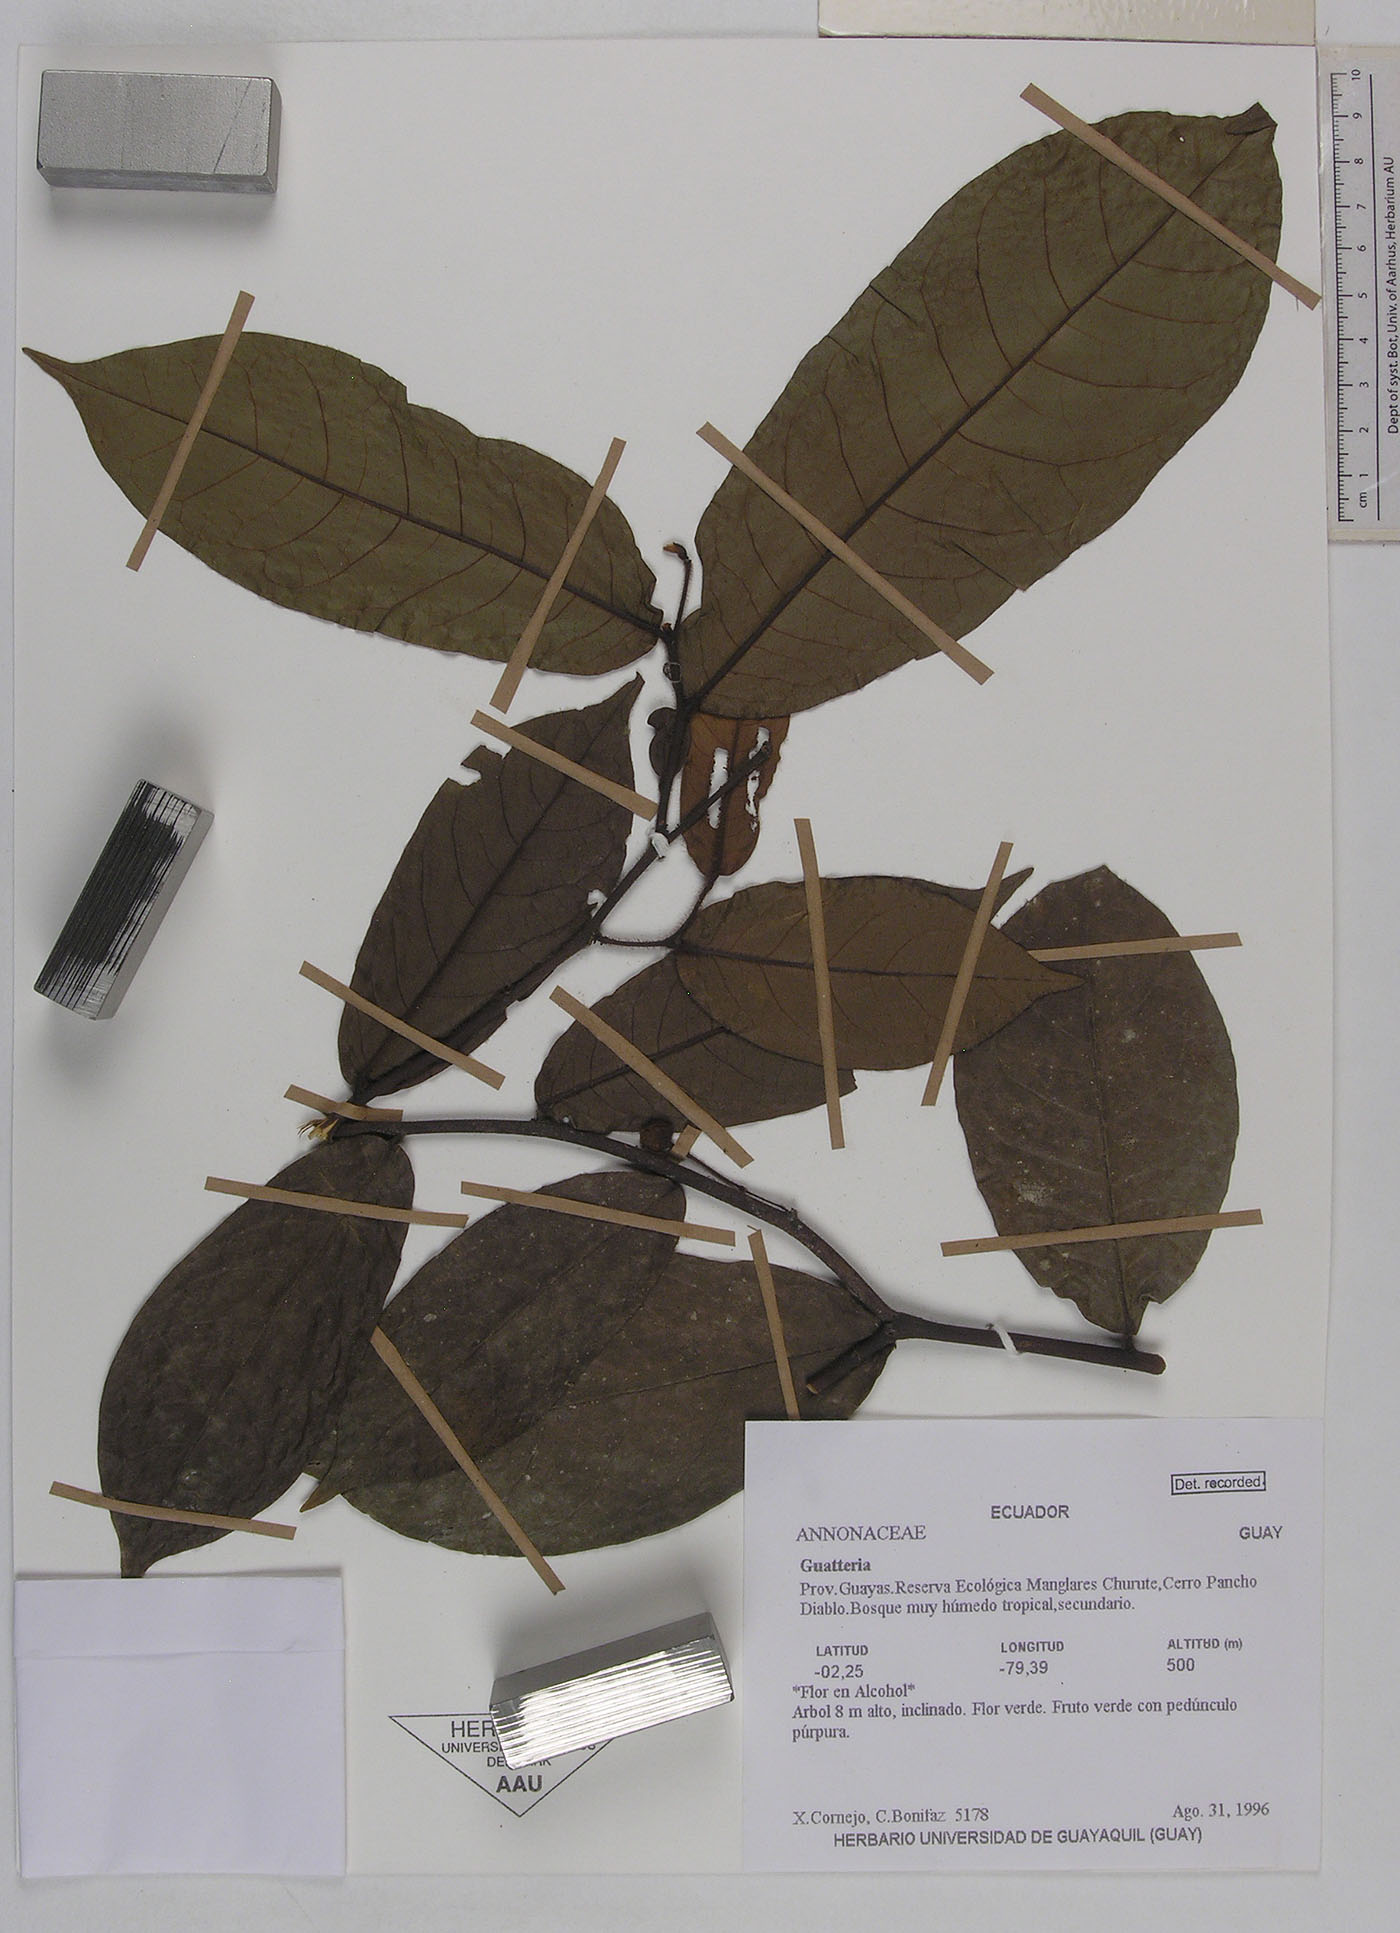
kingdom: Plantae
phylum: Tracheophyta
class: Magnoliopsida
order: Magnoliales
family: Annonaceae
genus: Guatteria
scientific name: Guatteria microcarpa
